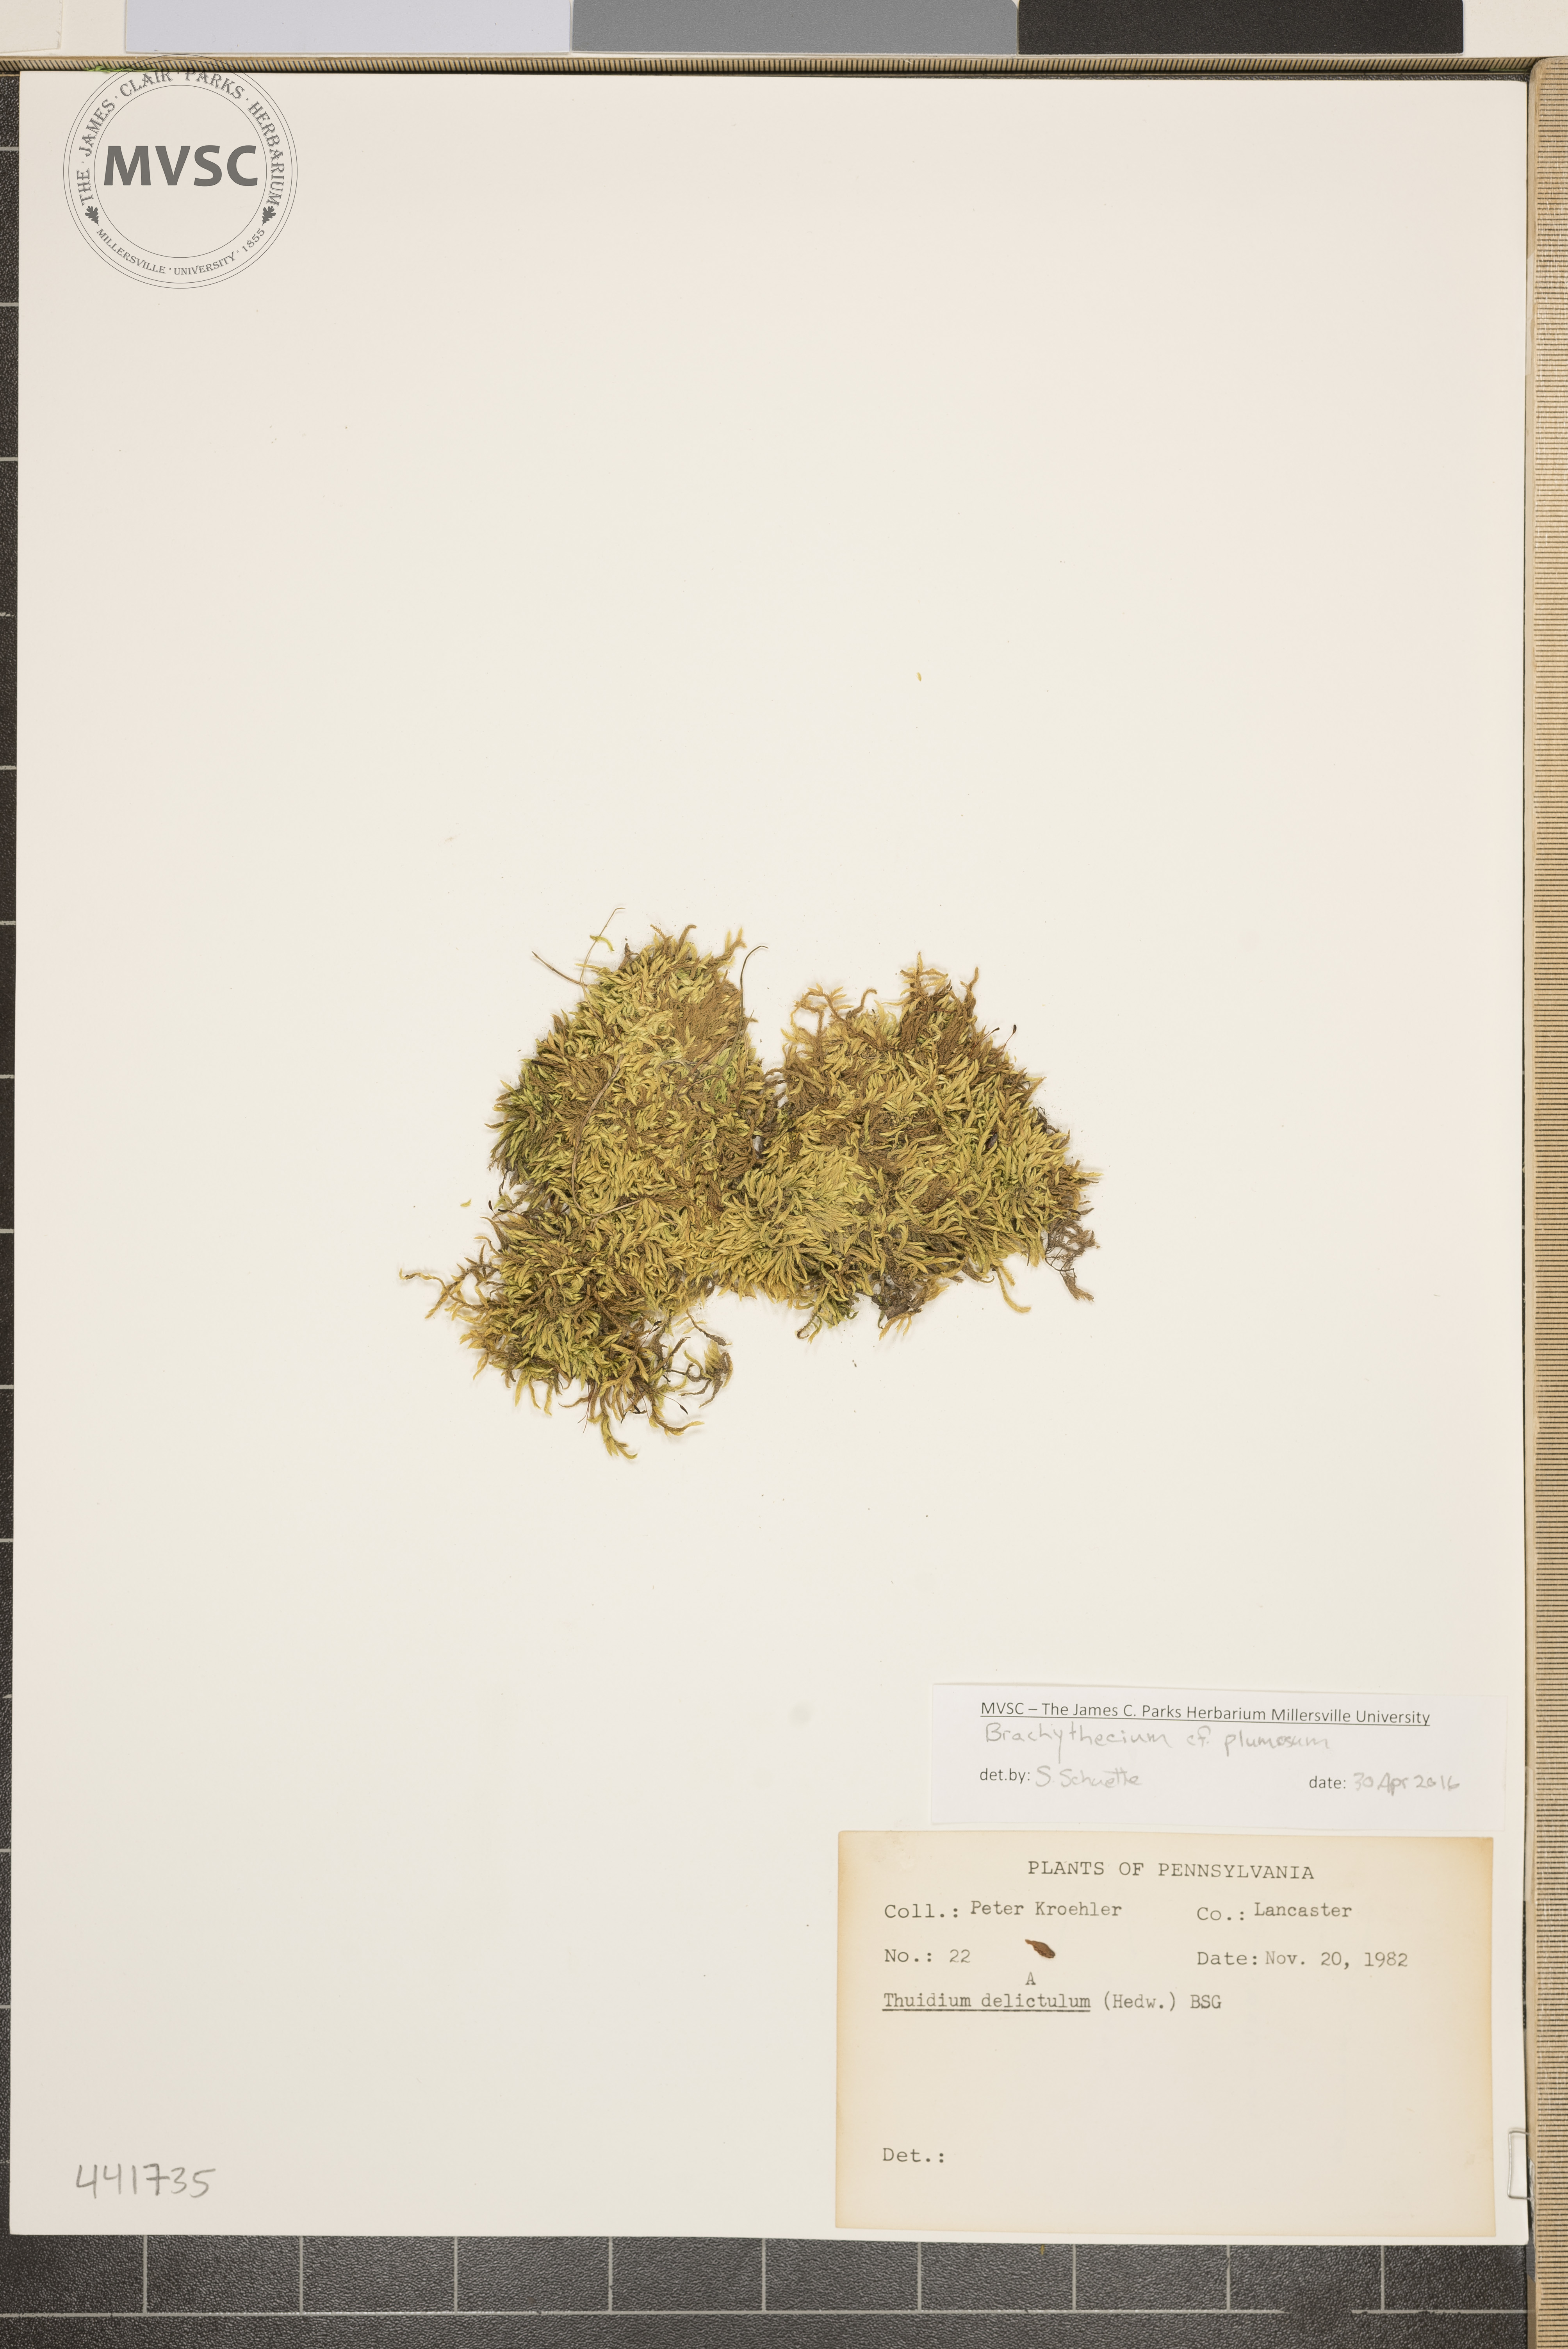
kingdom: Plantae
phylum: Bryophyta
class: Bryopsida
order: Hypnales
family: Brachytheciaceae
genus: Sciuro-hypnum
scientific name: Sciuro-hypnum plumosum
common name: Moss
